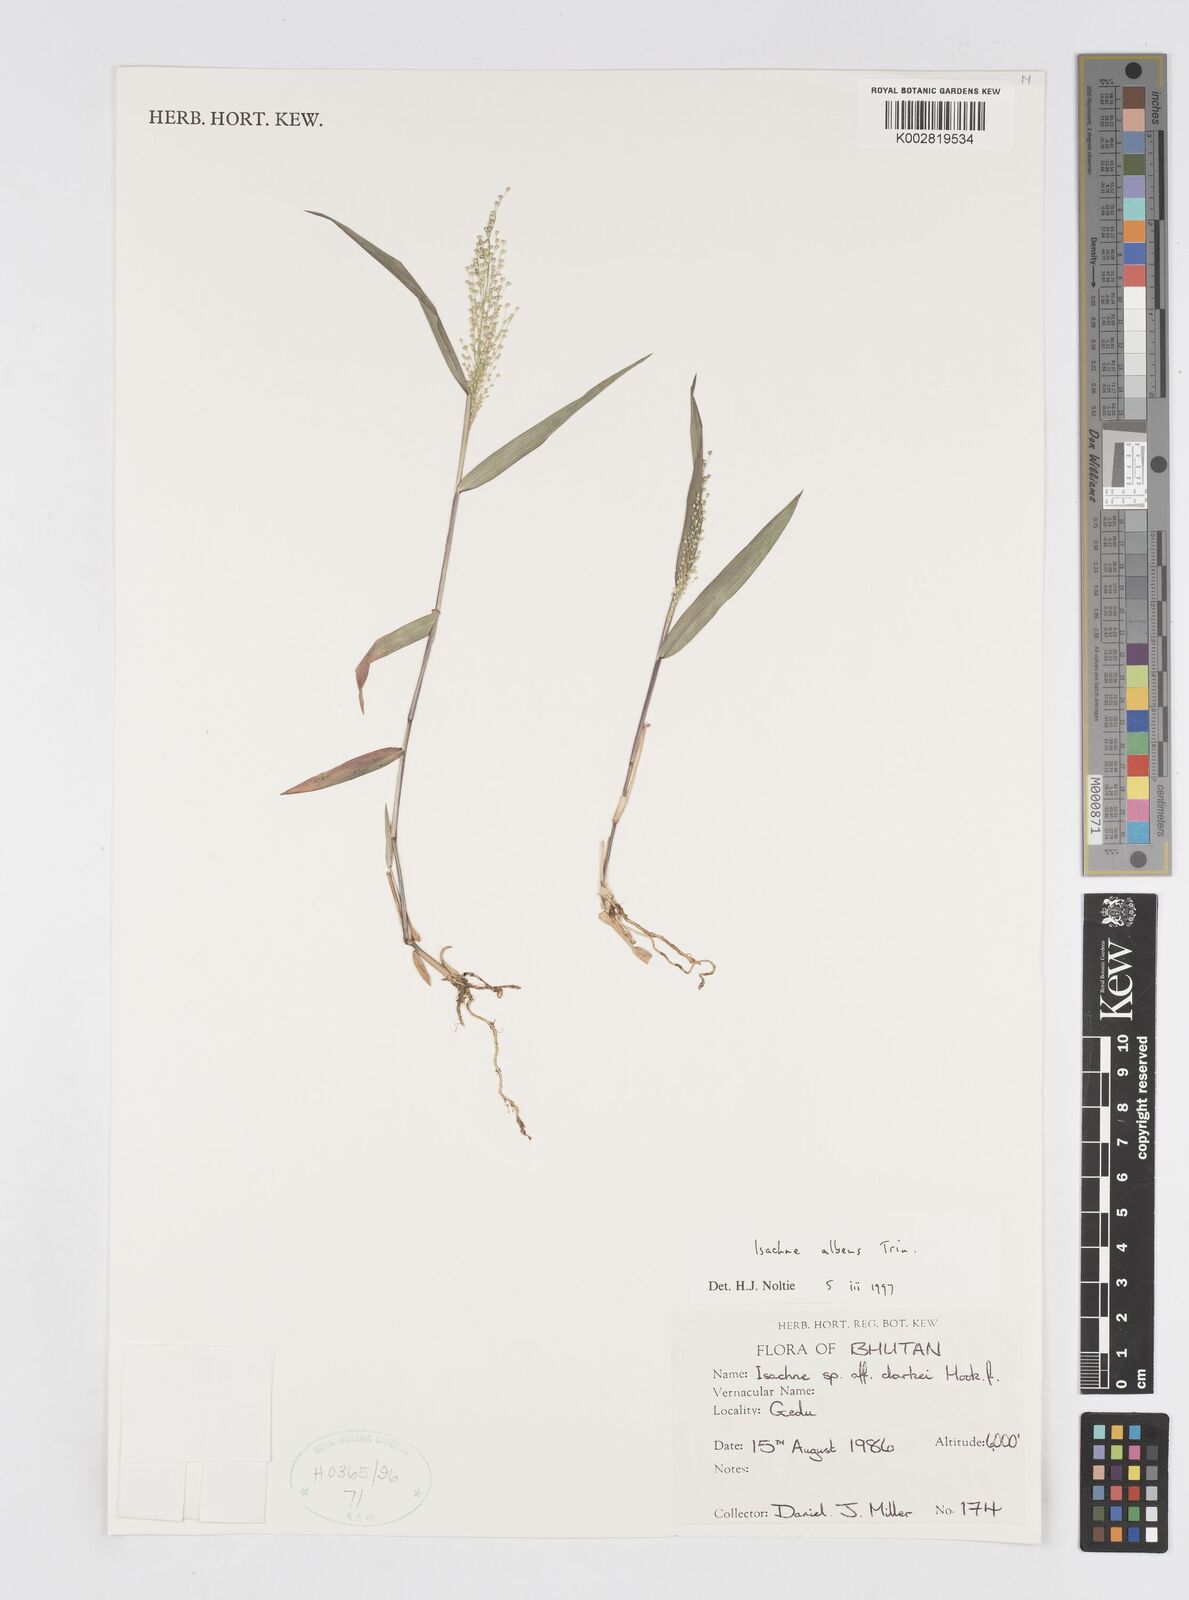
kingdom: Plantae
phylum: Tracheophyta
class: Liliopsida
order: Poales
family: Poaceae
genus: Isachne
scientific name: Isachne albens
